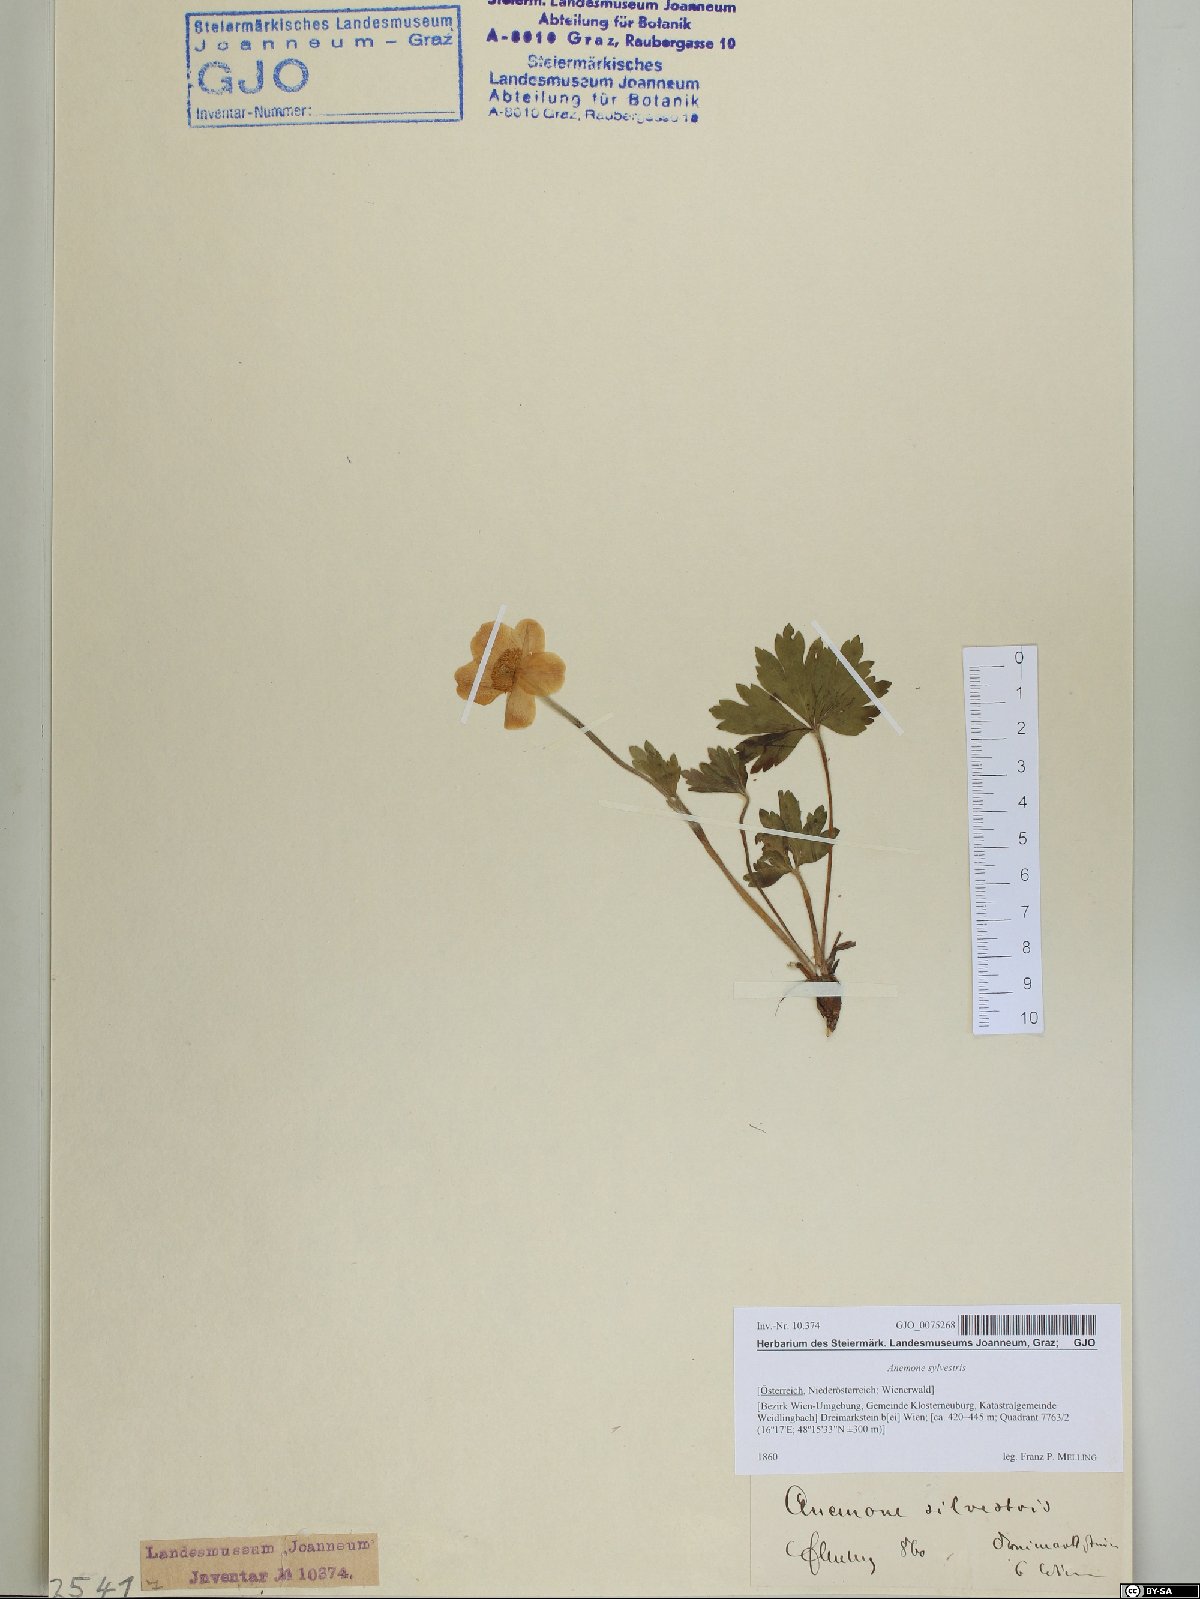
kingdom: Plantae
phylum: Tracheophyta
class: Magnoliopsida
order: Ranunculales
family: Ranunculaceae
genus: Anemone
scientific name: Anemone sylvestris
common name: Snowdrop anemone
